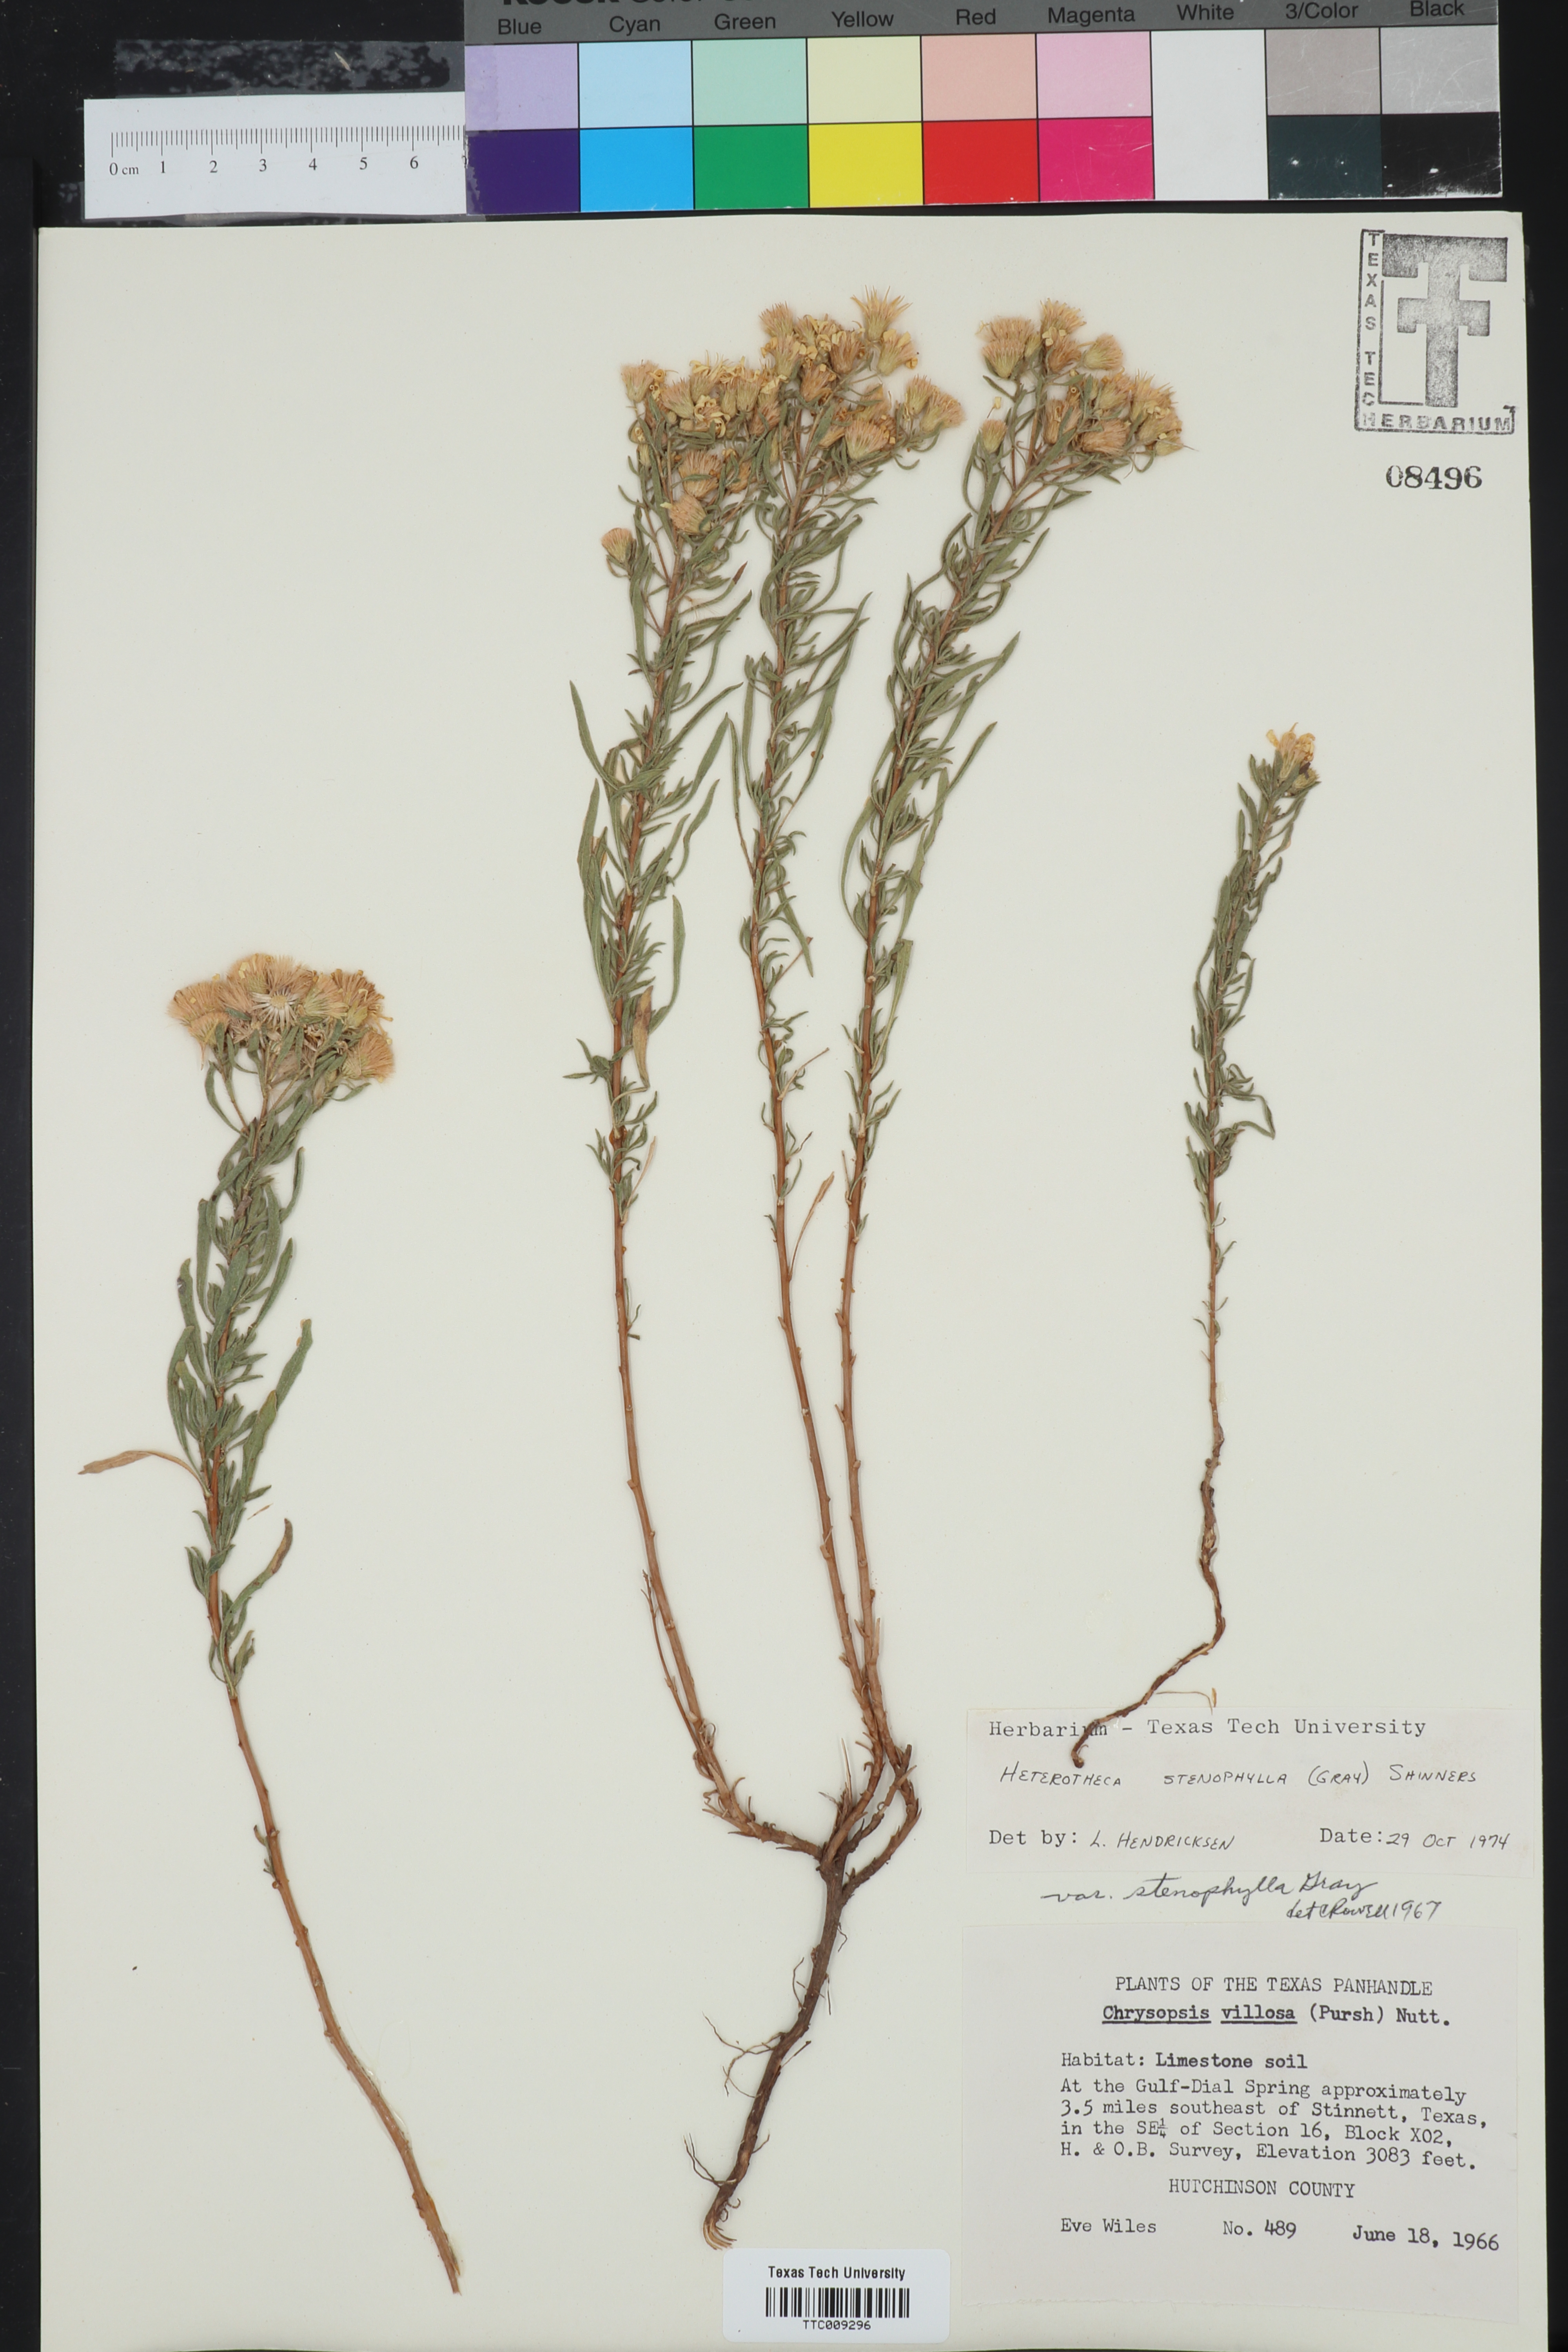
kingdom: Plantae
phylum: Tracheophyta
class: Magnoliopsida
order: Asterales
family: Asteraceae
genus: Heterotheca
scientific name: Heterotheca stenophylla
